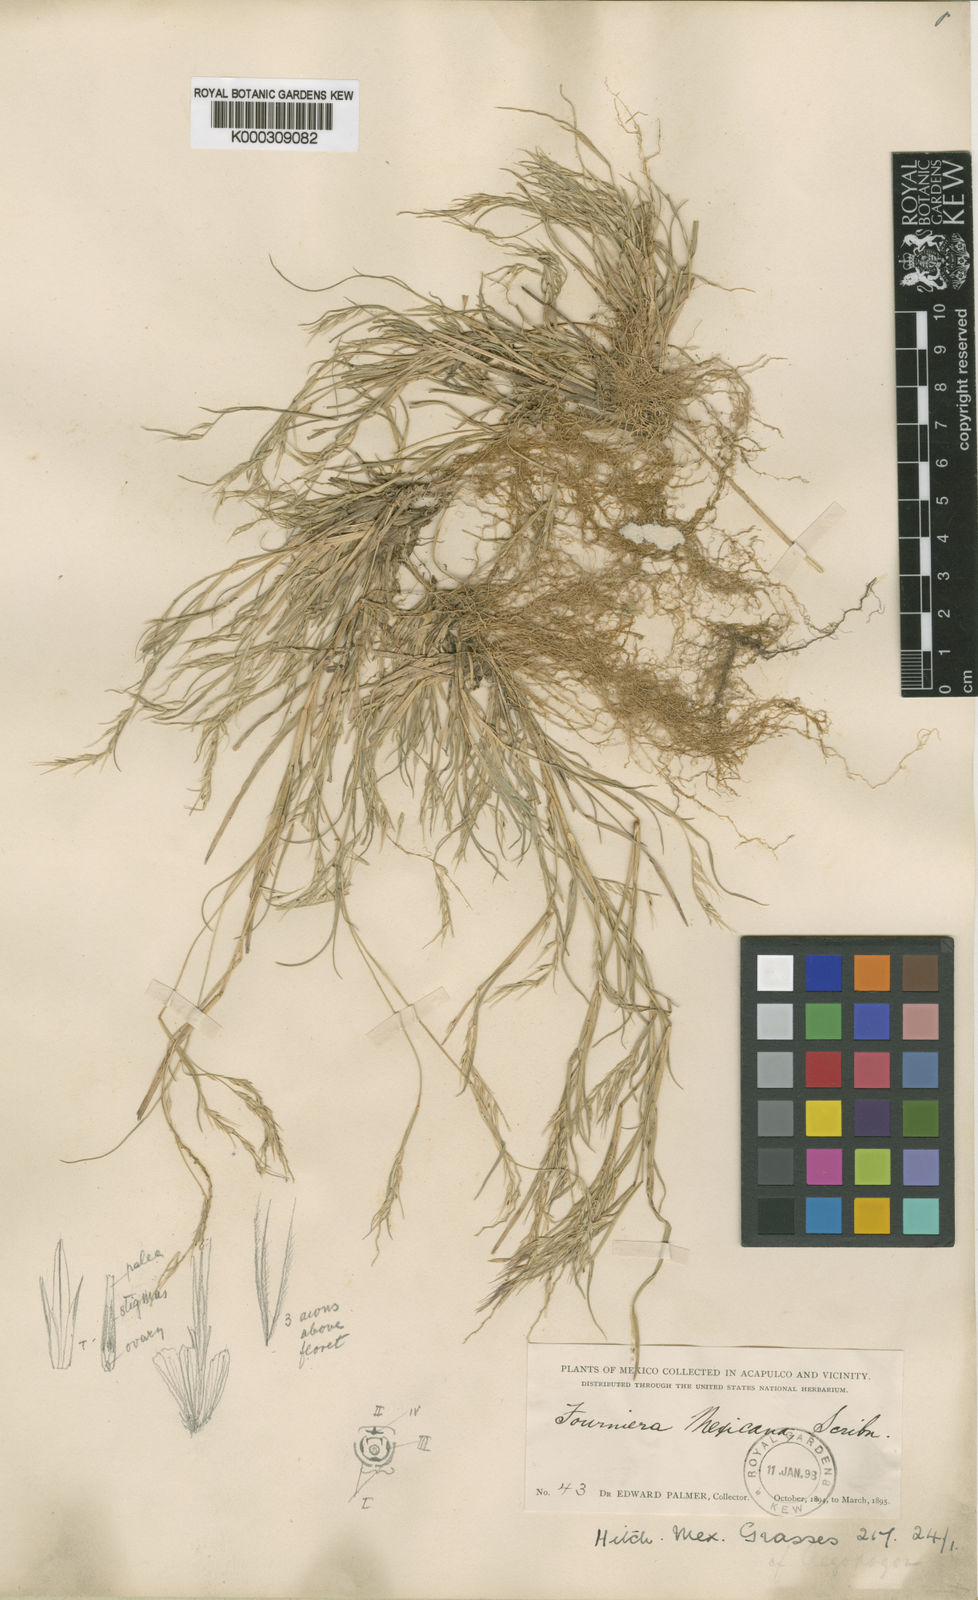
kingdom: Plantae
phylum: Tracheophyta
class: Liliopsida
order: Poales
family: Poaceae
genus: Bouteloua
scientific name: Bouteloua mexicana
